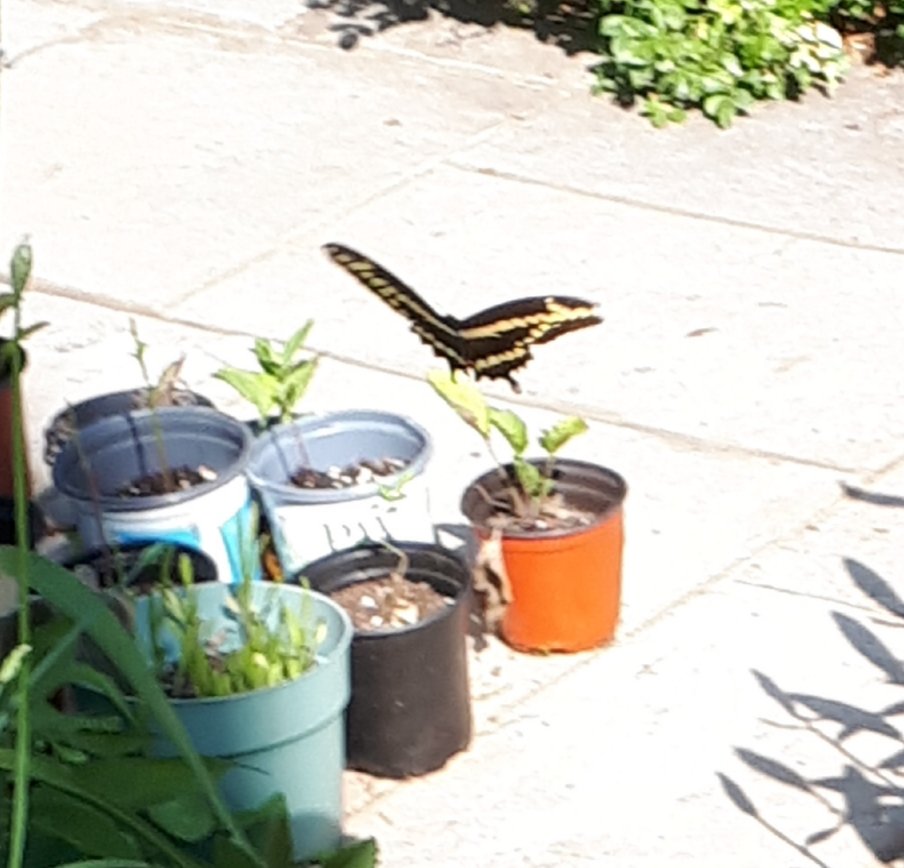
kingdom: Animalia
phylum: Arthropoda
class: Insecta
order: Lepidoptera
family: Papilionidae
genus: Papilio
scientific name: Papilio cresphontes
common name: Eastern Giant Swallowtail
